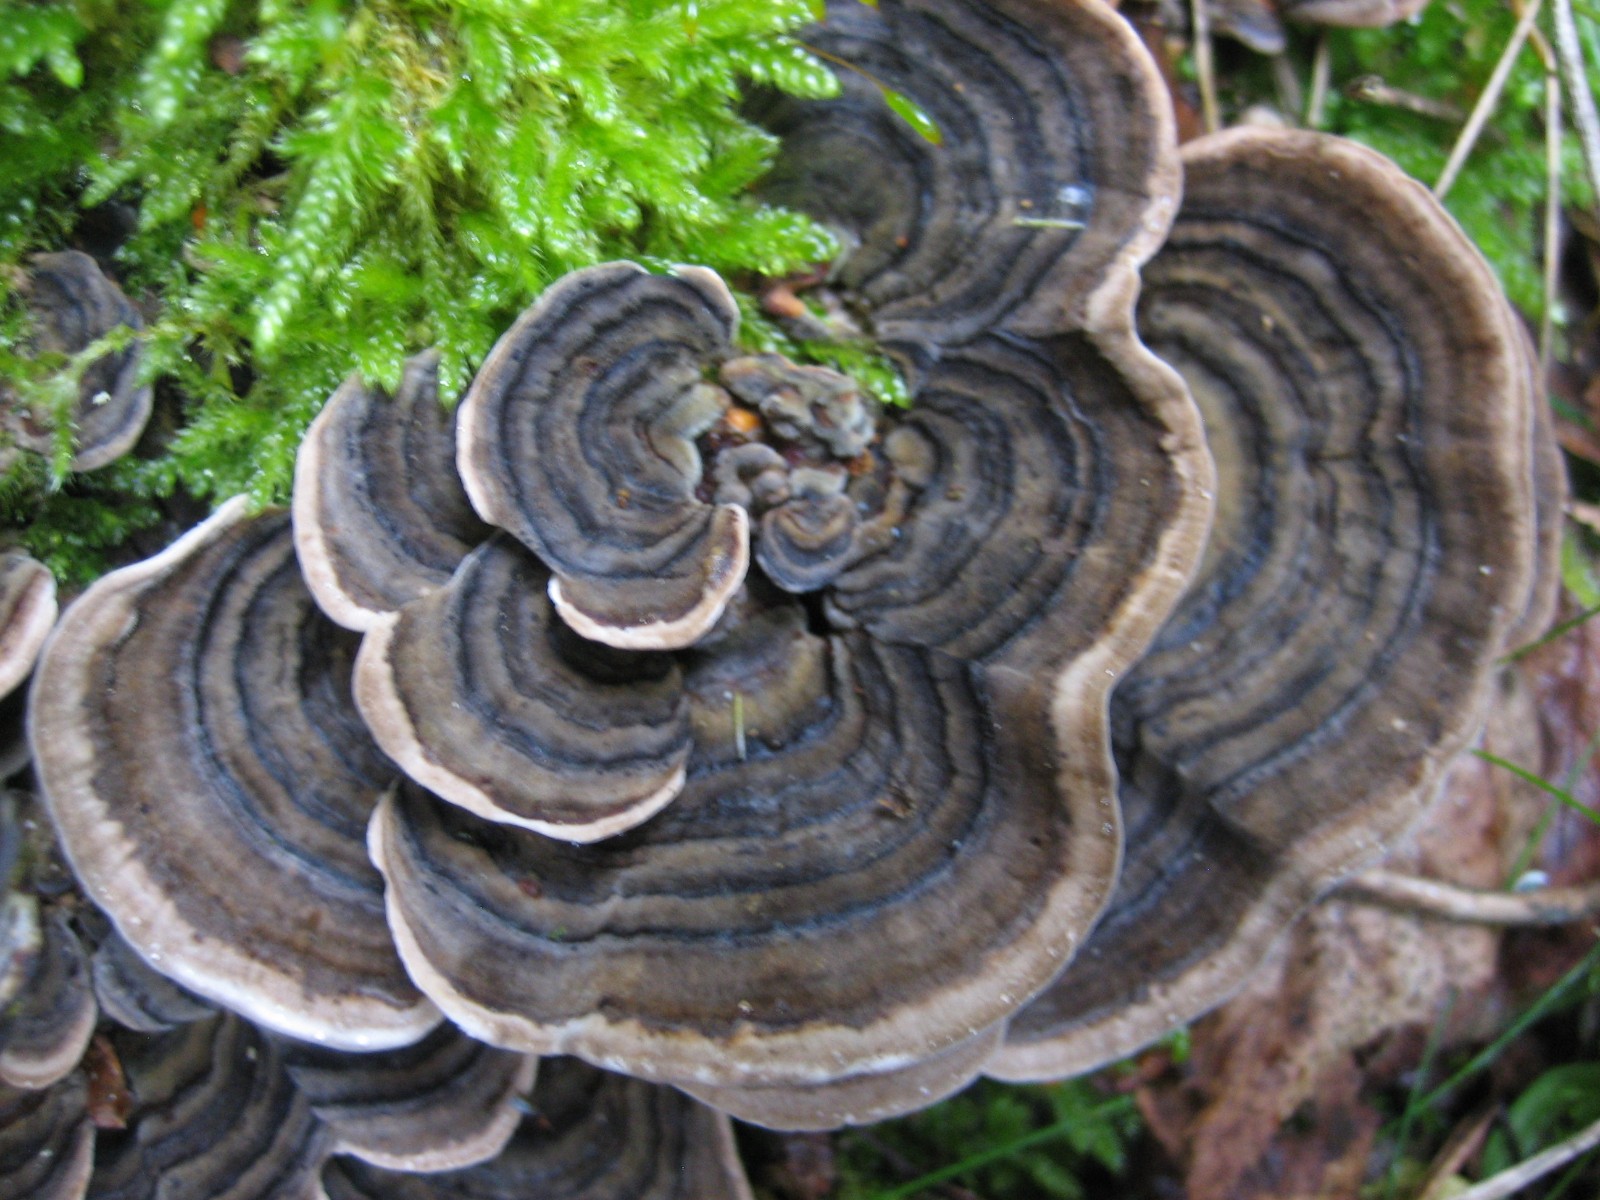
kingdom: Fungi
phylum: Basidiomycota
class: Agaricomycetes
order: Polyporales
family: Polyporaceae
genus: Trametes
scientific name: Trametes versicolor
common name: broget læderporesvamp
